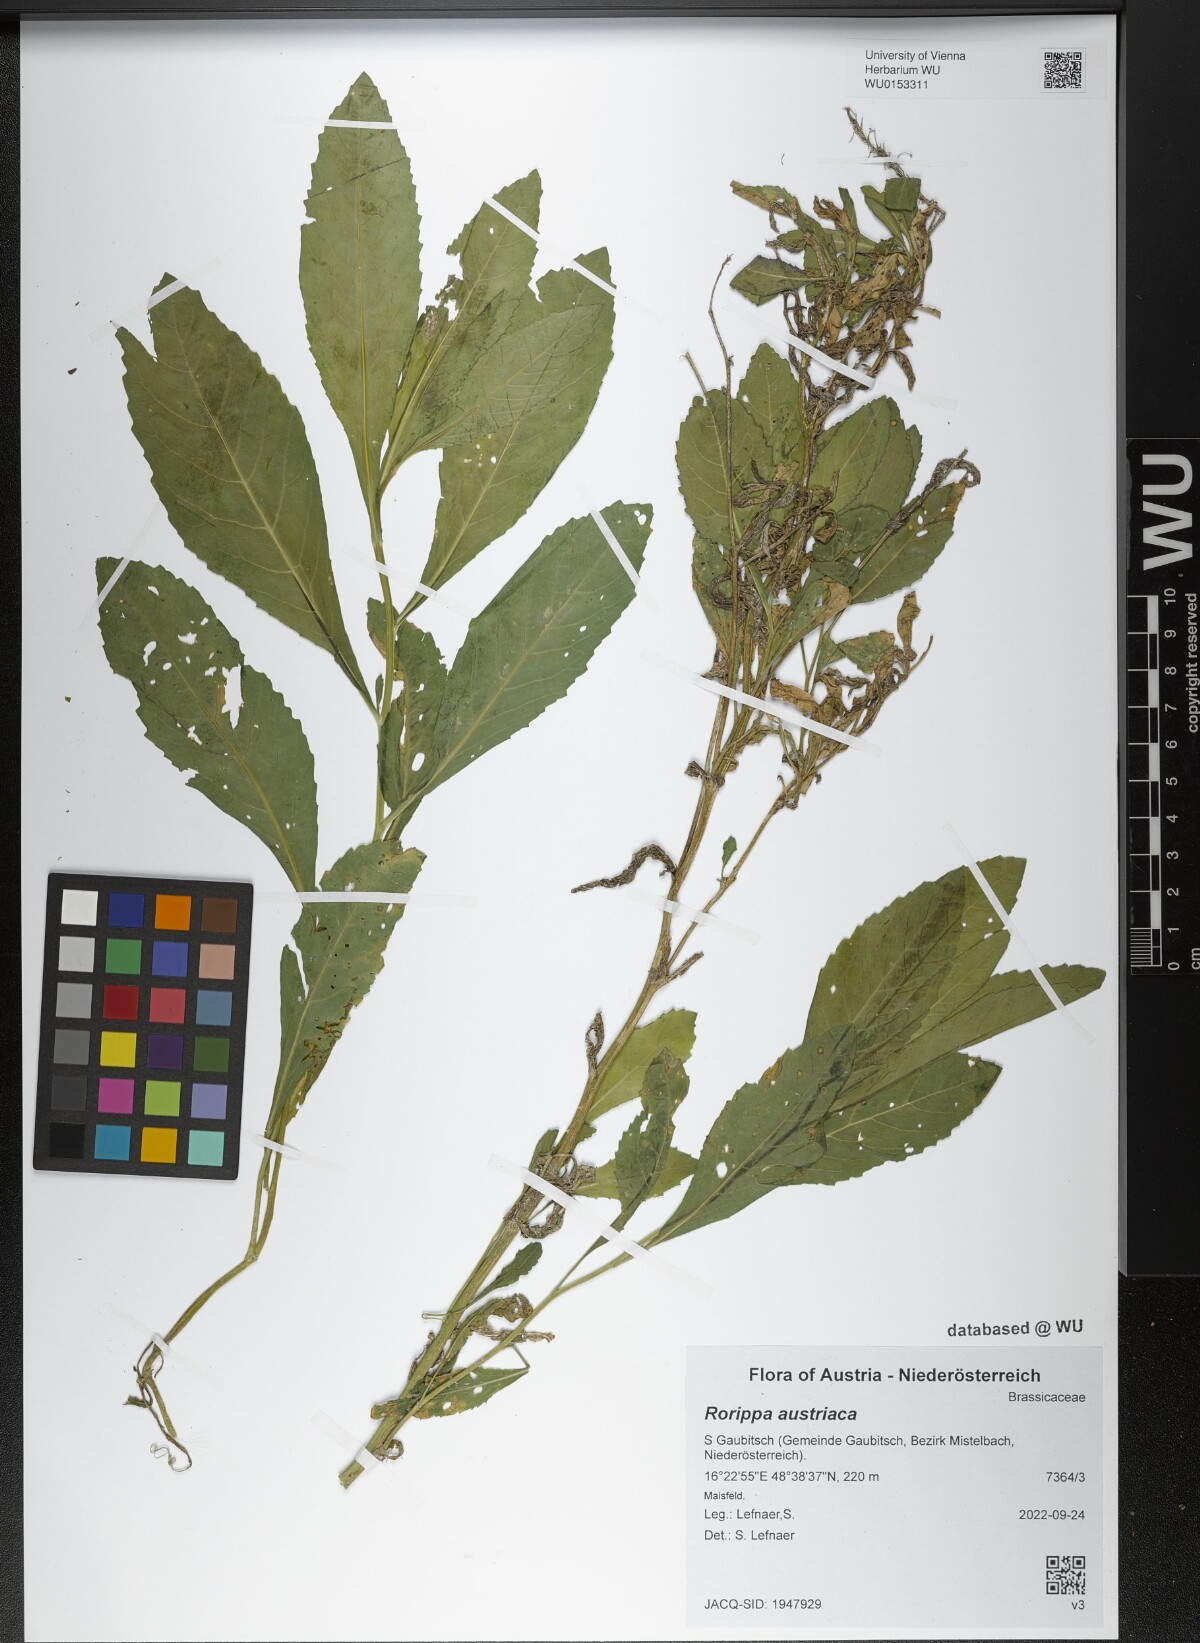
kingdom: Plantae
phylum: Tracheophyta
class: Magnoliopsida
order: Brassicales
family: Brassicaceae
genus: Rorippa
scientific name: Rorippa austriaca
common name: Austrian yellow-cress
